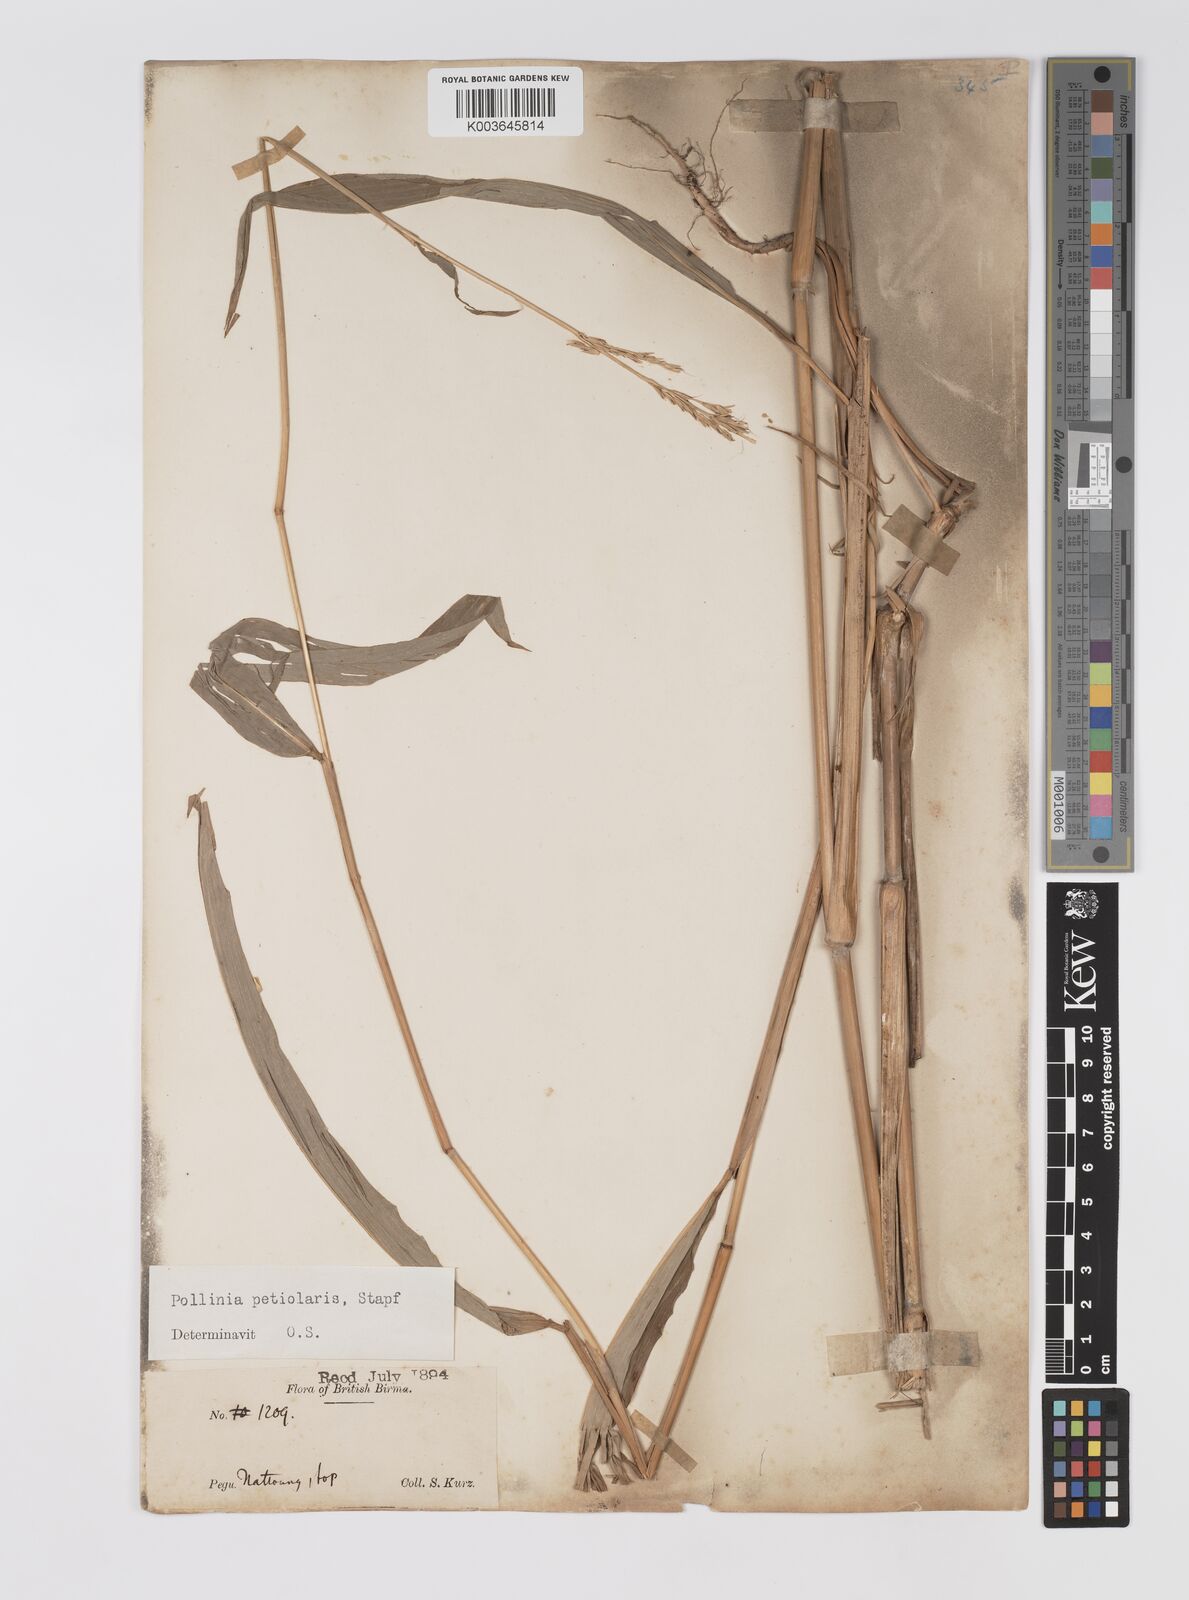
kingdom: Plantae
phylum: Tracheophyta
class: Liliopsida
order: Poales
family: Poaceae
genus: Microstegium
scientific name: Microstegium petiolare
